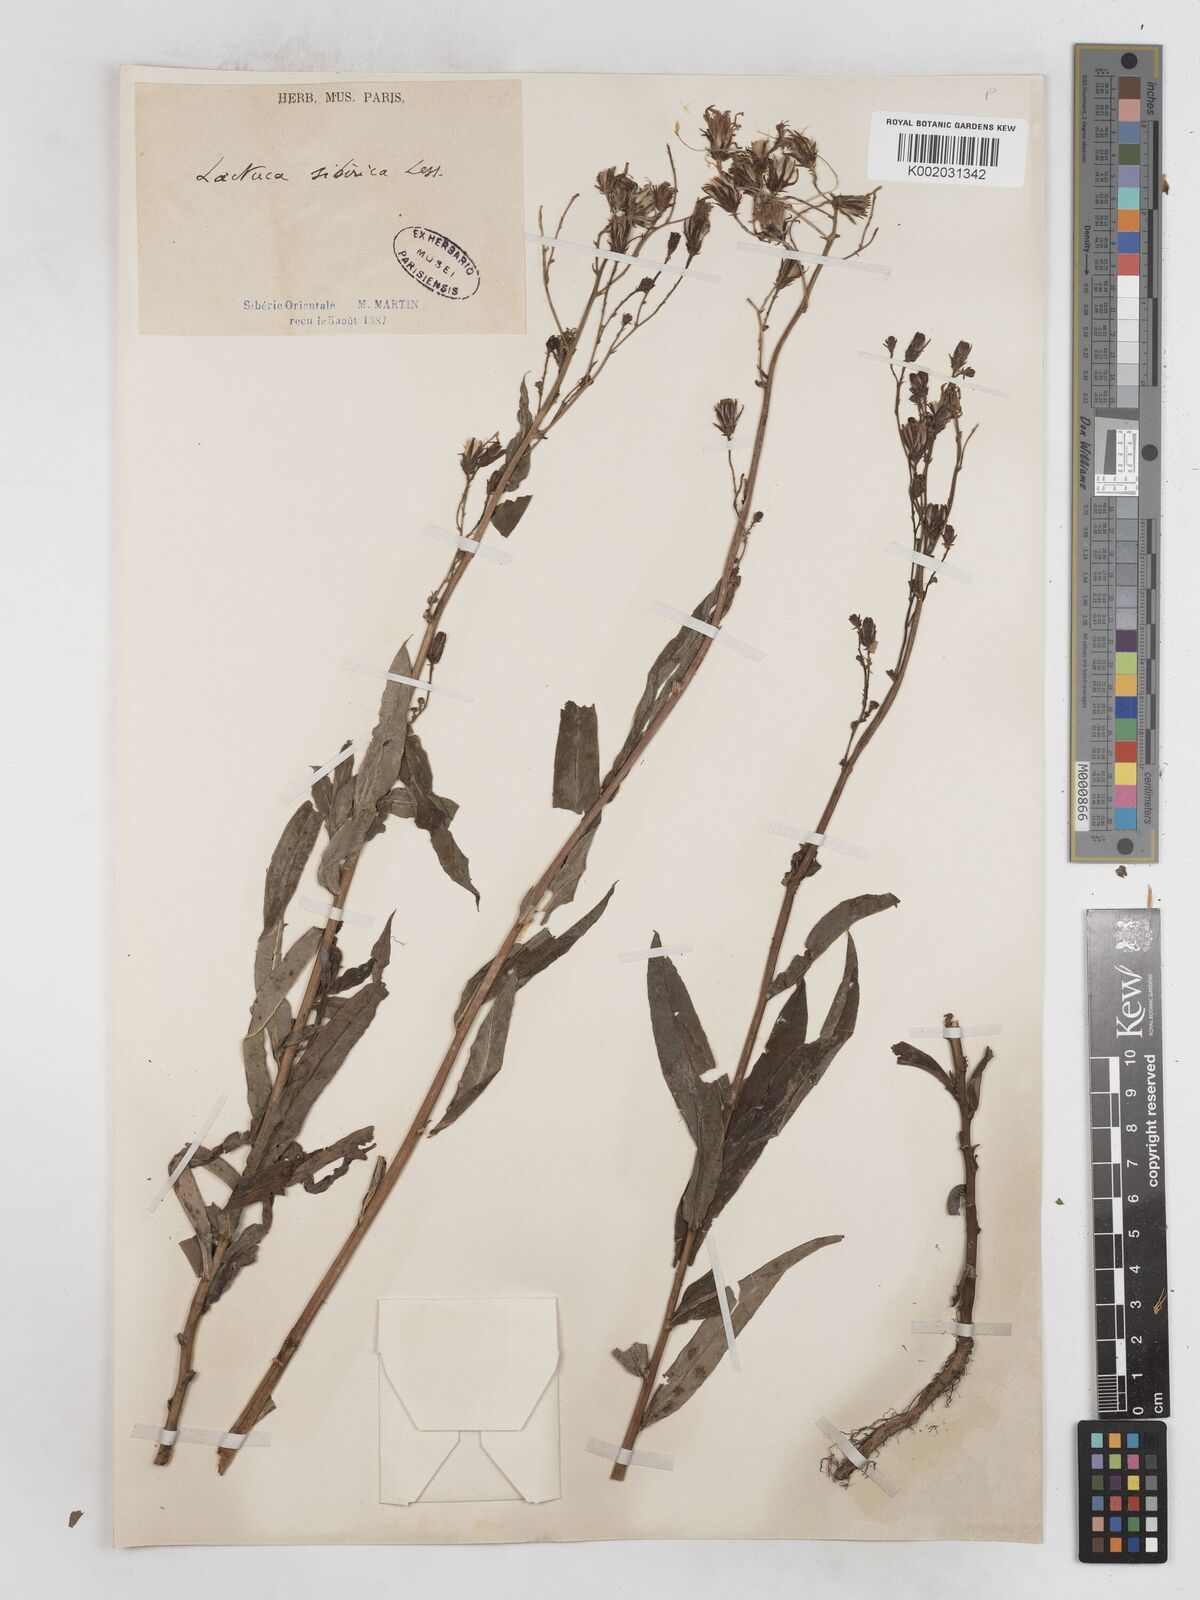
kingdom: Plantae
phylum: Tracheophyta
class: Magnoliopsida
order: Asterales
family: Asteraceae
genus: Lactuca
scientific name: Lactuca sibirica
